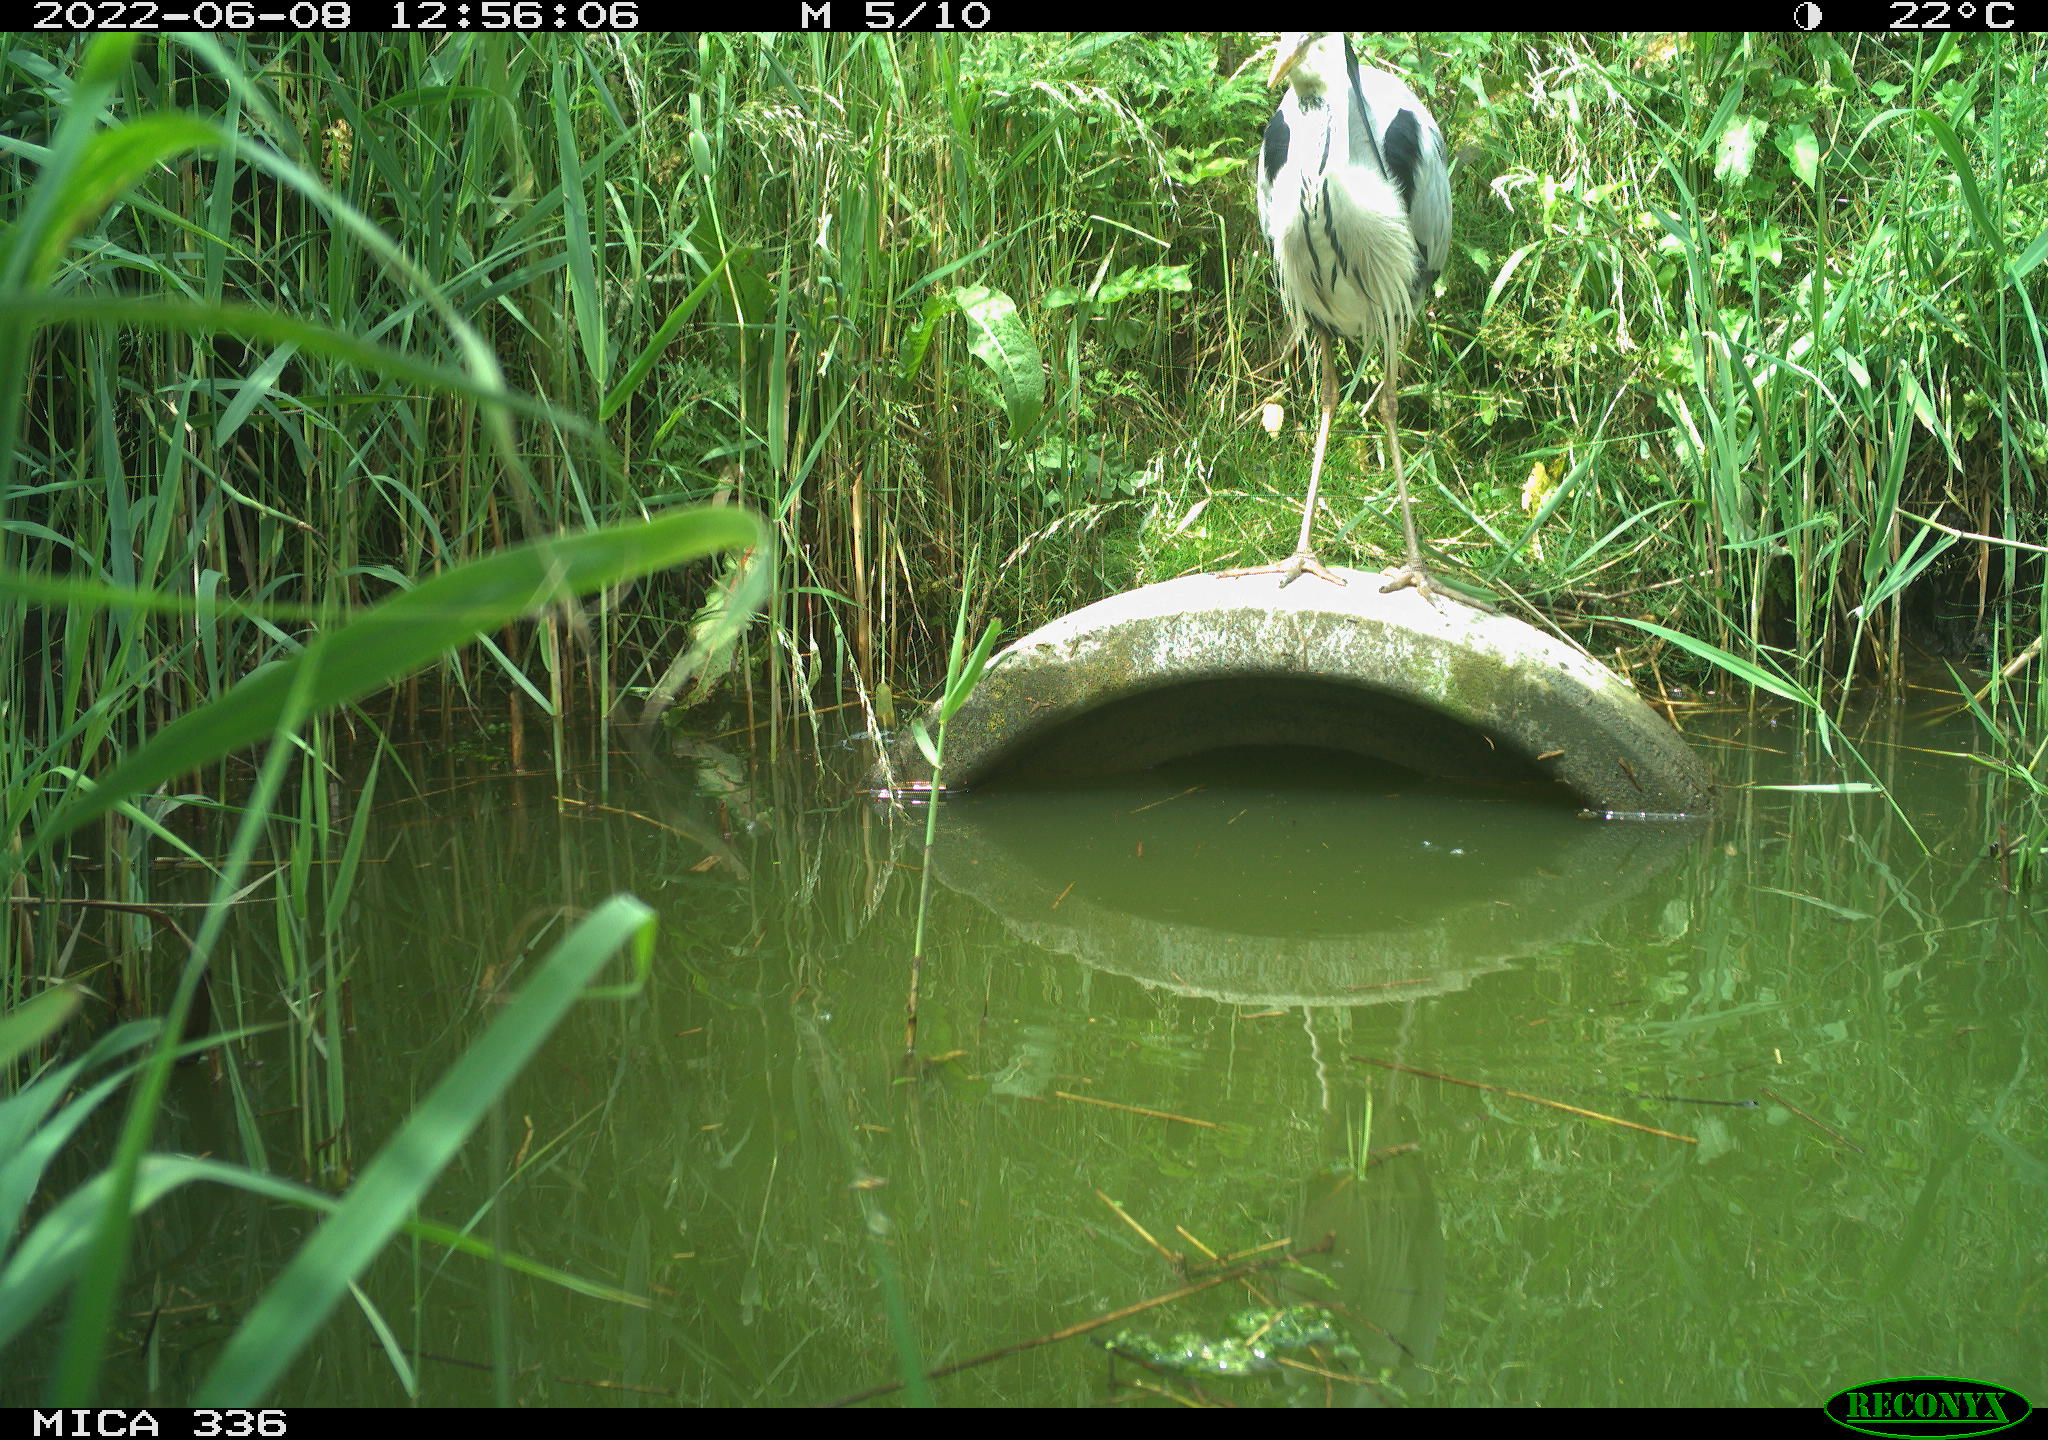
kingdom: Animalia
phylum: Chordata
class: Aves
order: Pelecaniformes
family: Ardeidae
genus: Ardea
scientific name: Ardea cinerea
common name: Grey heron
